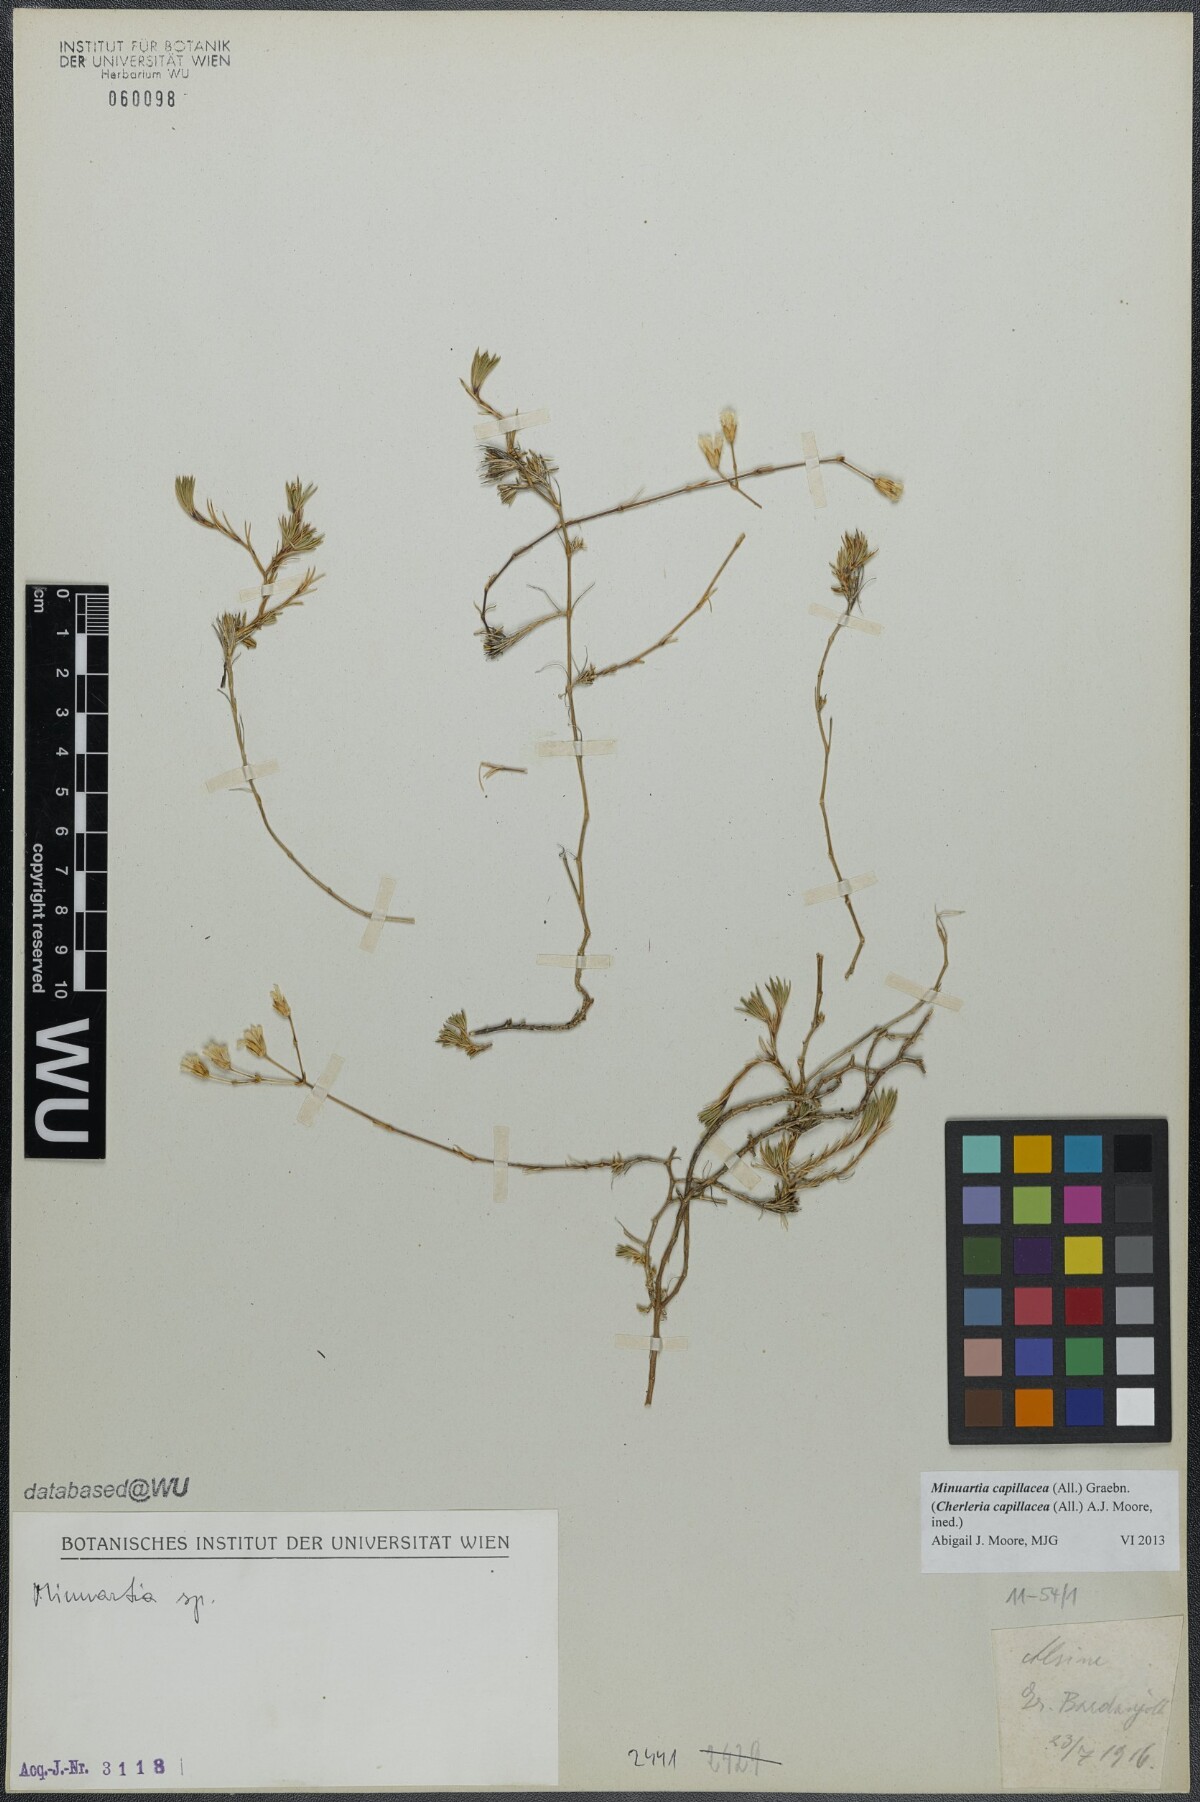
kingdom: Plantae
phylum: Tracheophyta
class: Magnoliopsida
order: Caryophyllales
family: Caryophyllaceae
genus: Cherleria
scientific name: Cherleria capillacea
